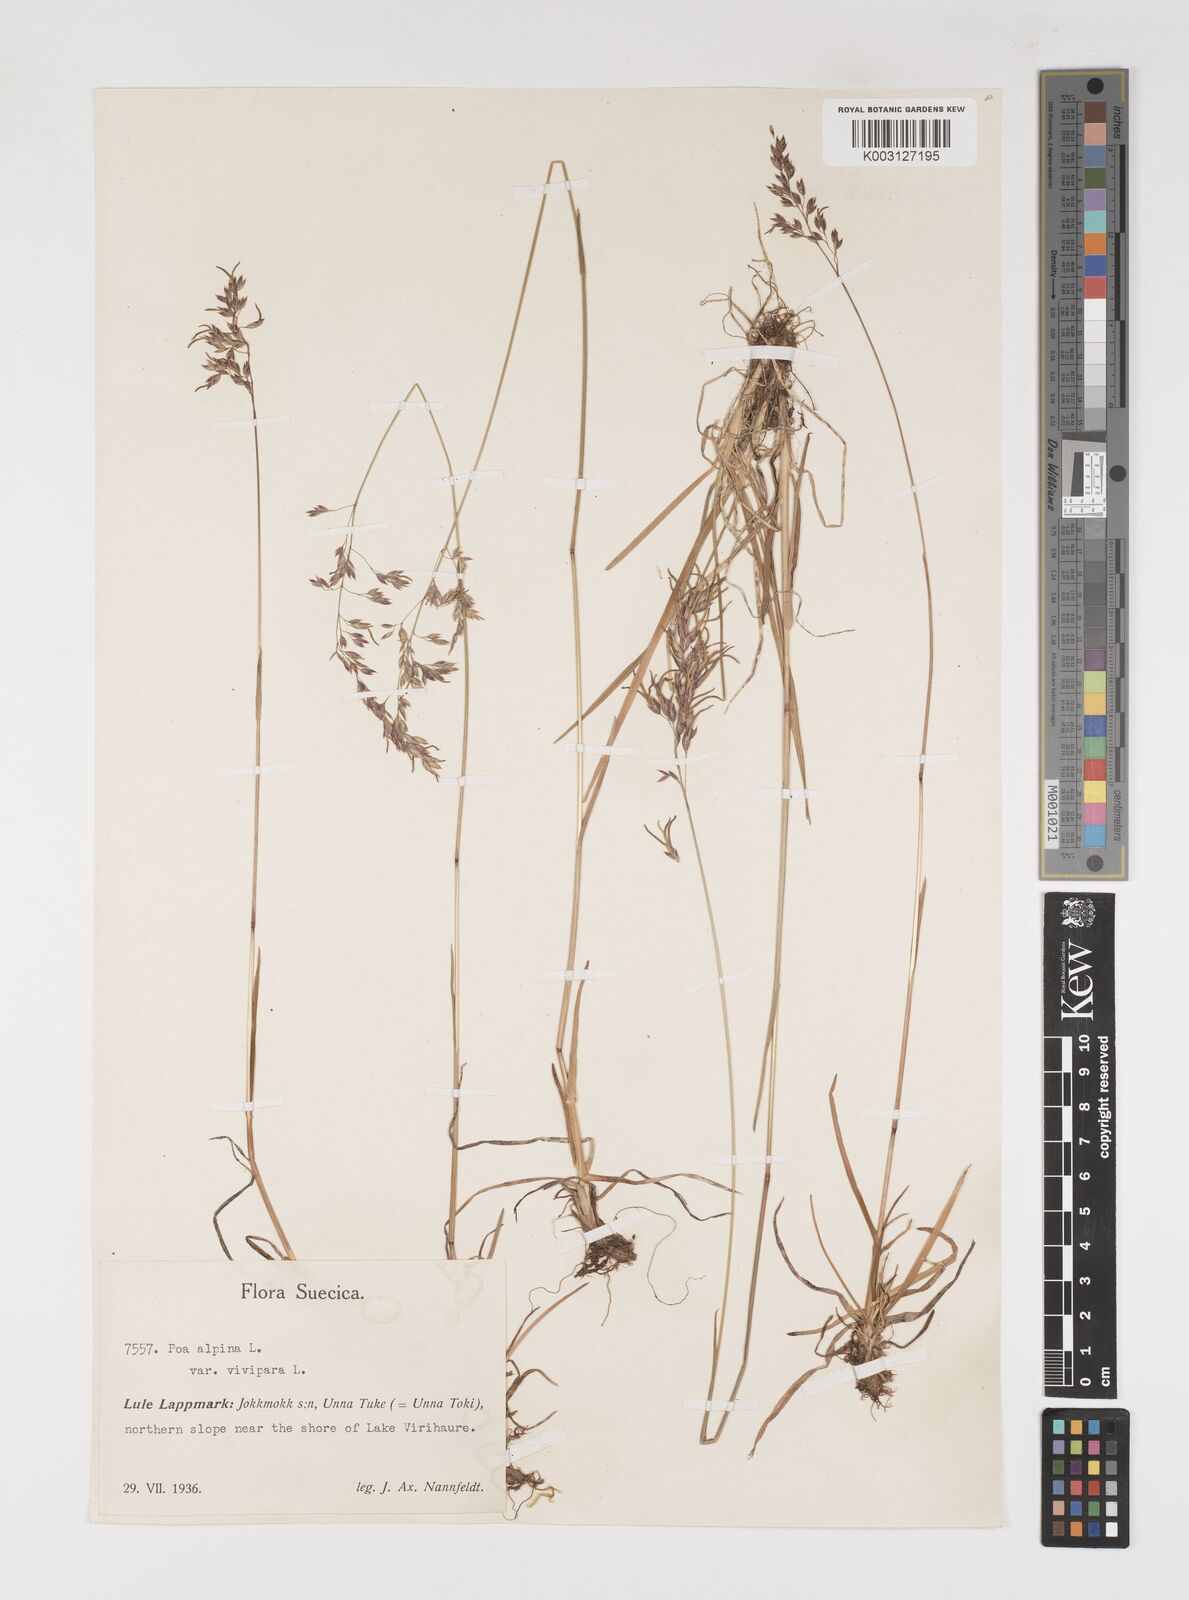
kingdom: Plantae
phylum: Tracheophyta
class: Liliopsida
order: Poales
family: Poaceae
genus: Poa
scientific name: Poa alpina
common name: Alpine bluegrass
